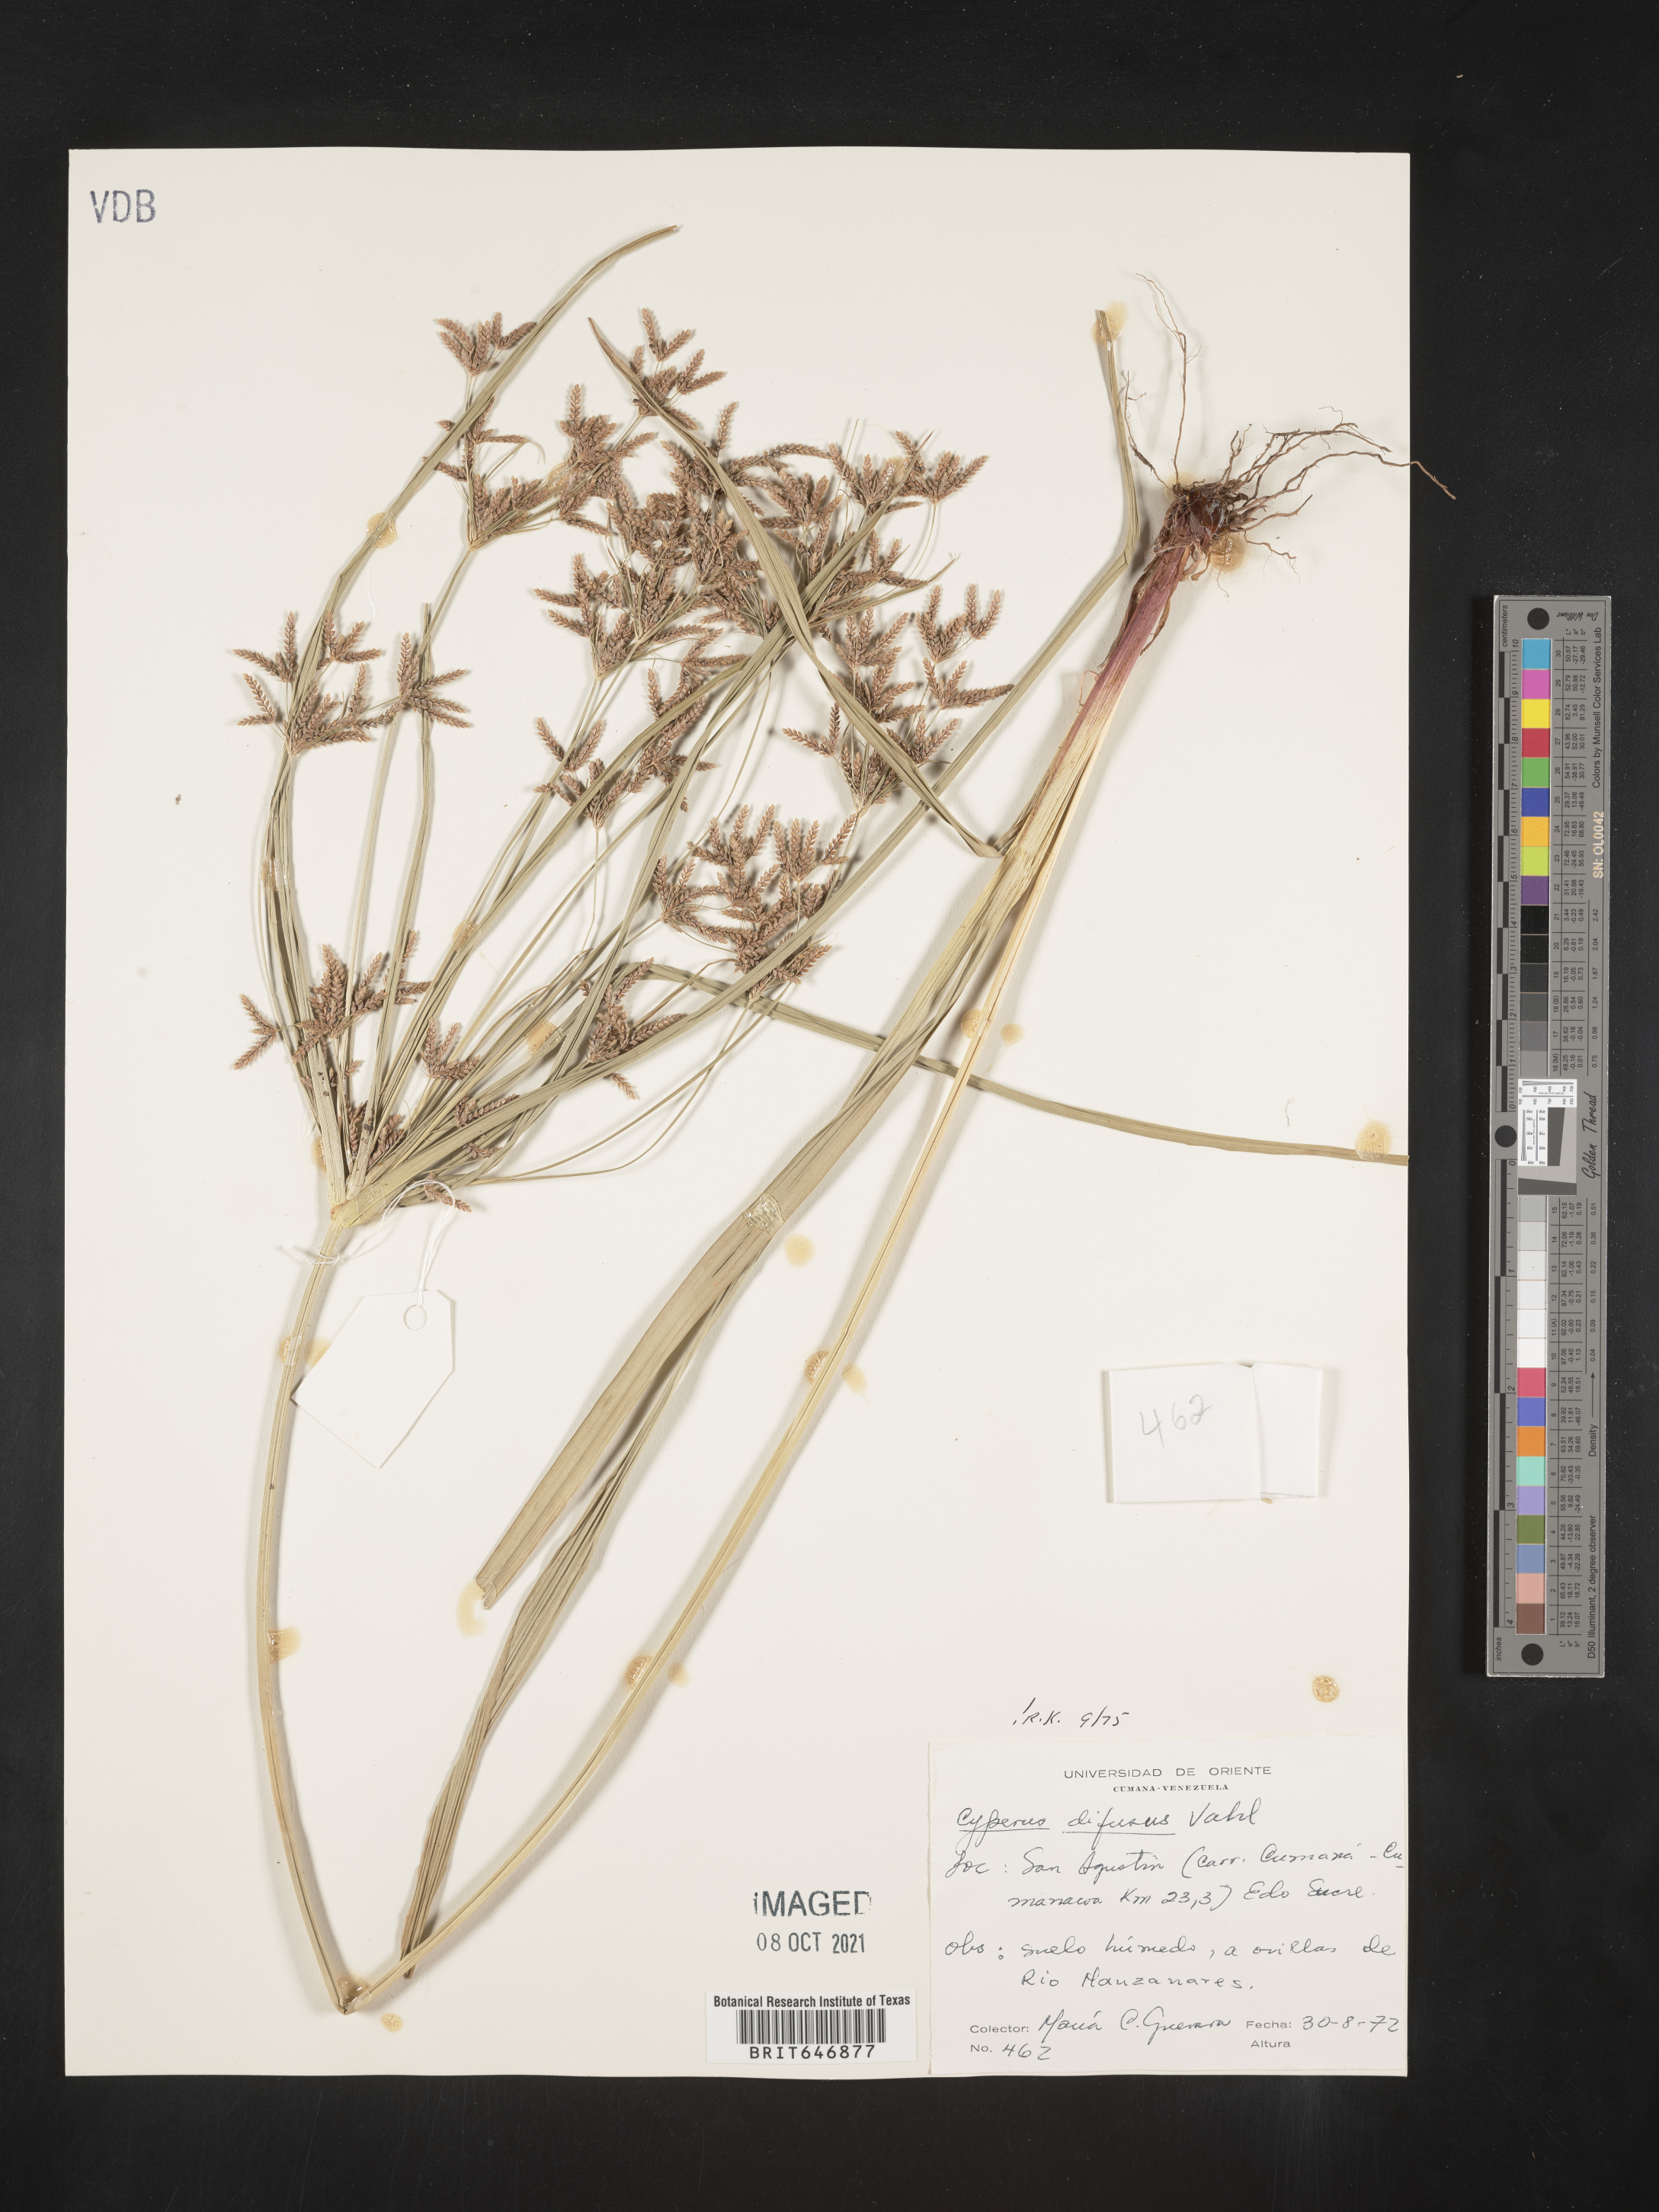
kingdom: Plantae
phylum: Tracheophyta
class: Liliopsida
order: Poales
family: Cyperaceae
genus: Cyperus
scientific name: Cyperus diffusus
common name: Dwarf umbrella grass
